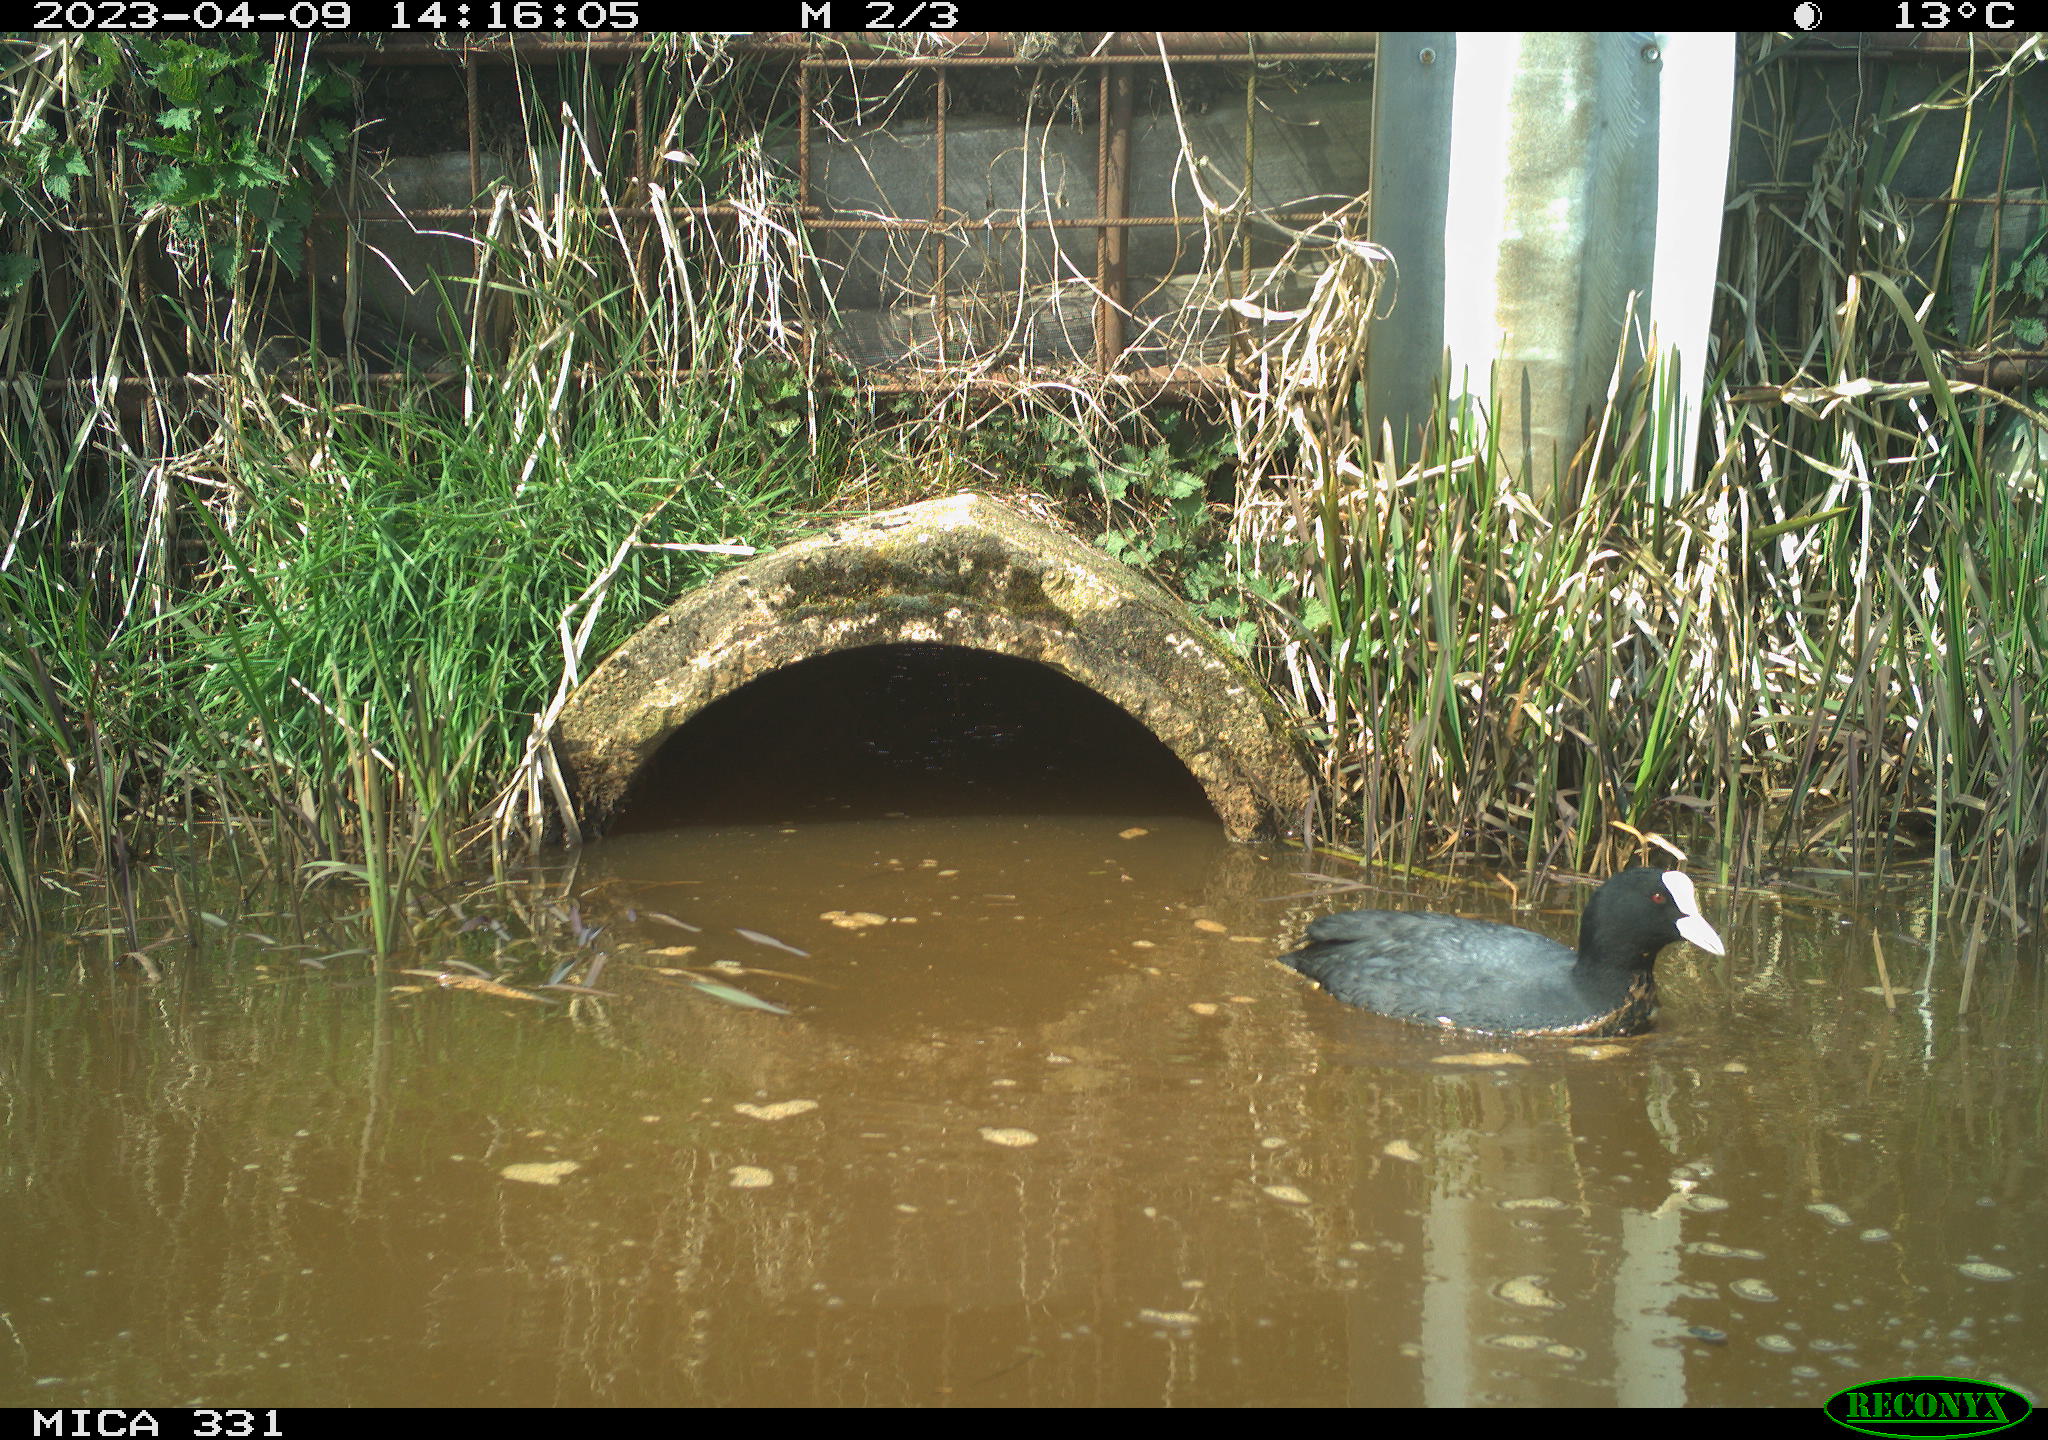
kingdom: Animalia
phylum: Chordata
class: Aves
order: Gruiformes
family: Rallidae
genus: Fulica
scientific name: Fulica atra
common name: Eurasian coot
